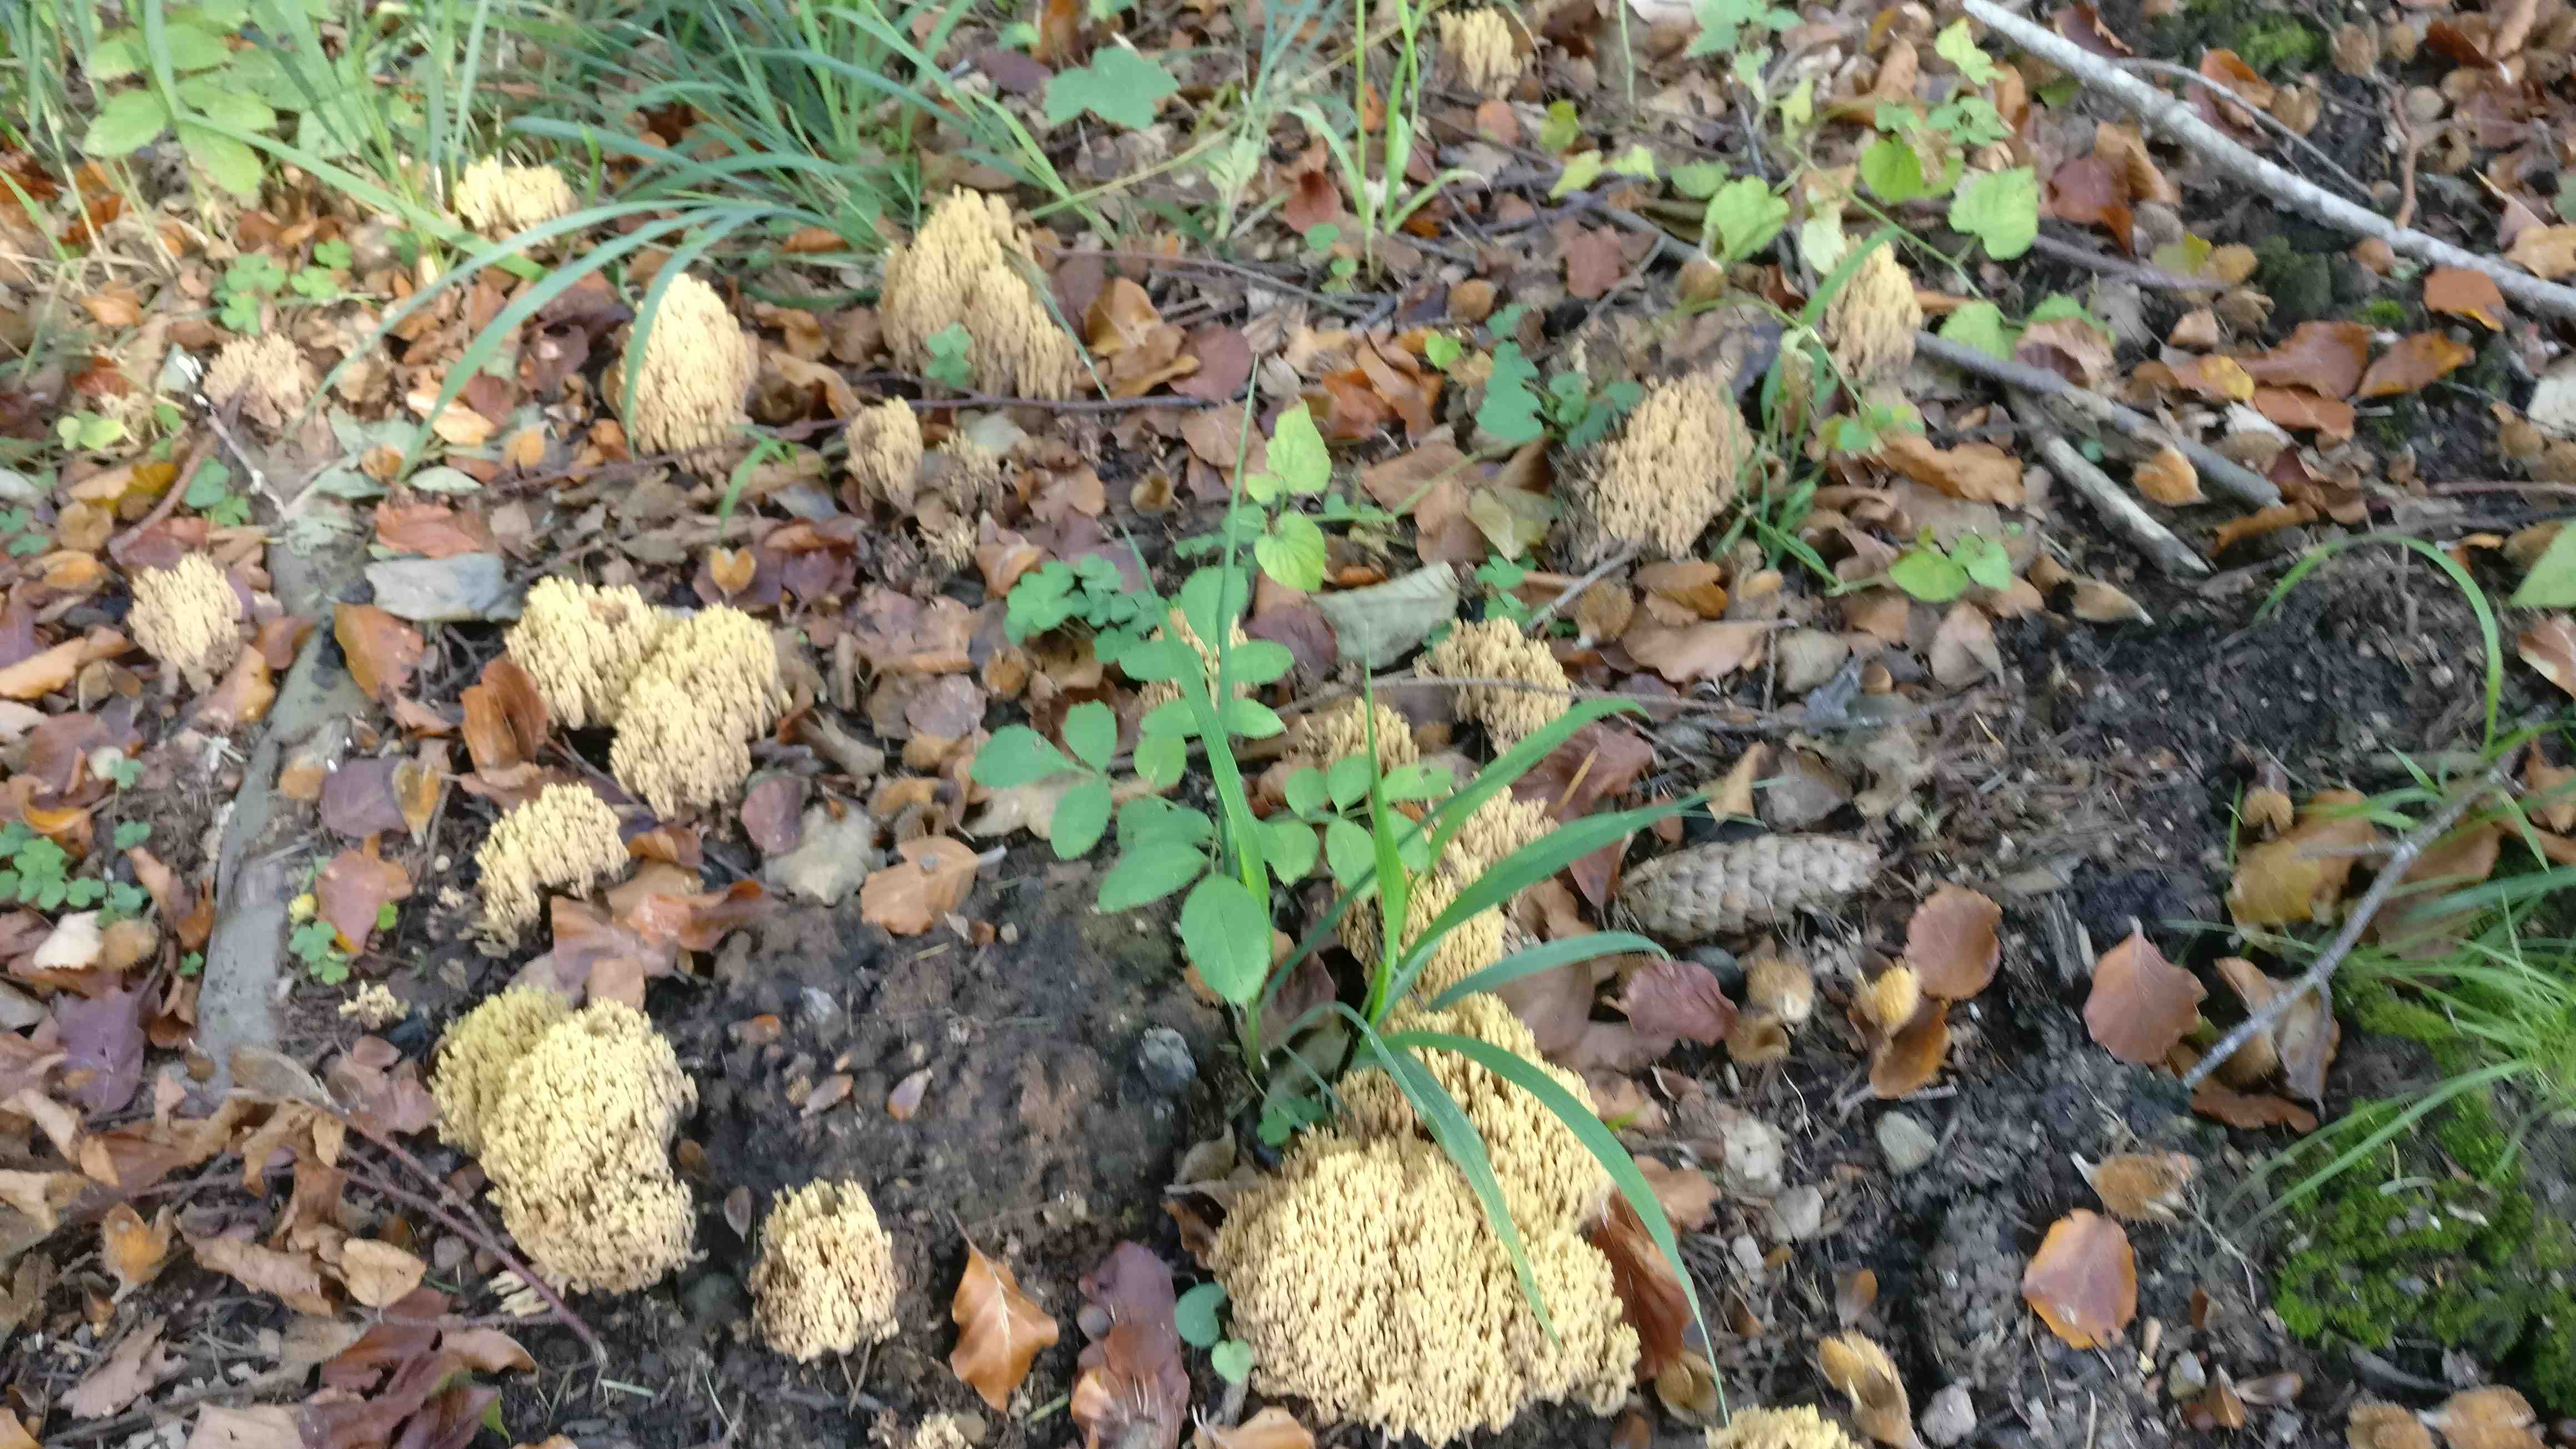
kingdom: Fungi
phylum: Basidiomycota
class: Agaricomycetes
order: Gomphales
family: Gomphaceae
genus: Ramaria
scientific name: Ramaria stricta
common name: rank koralsvamp
